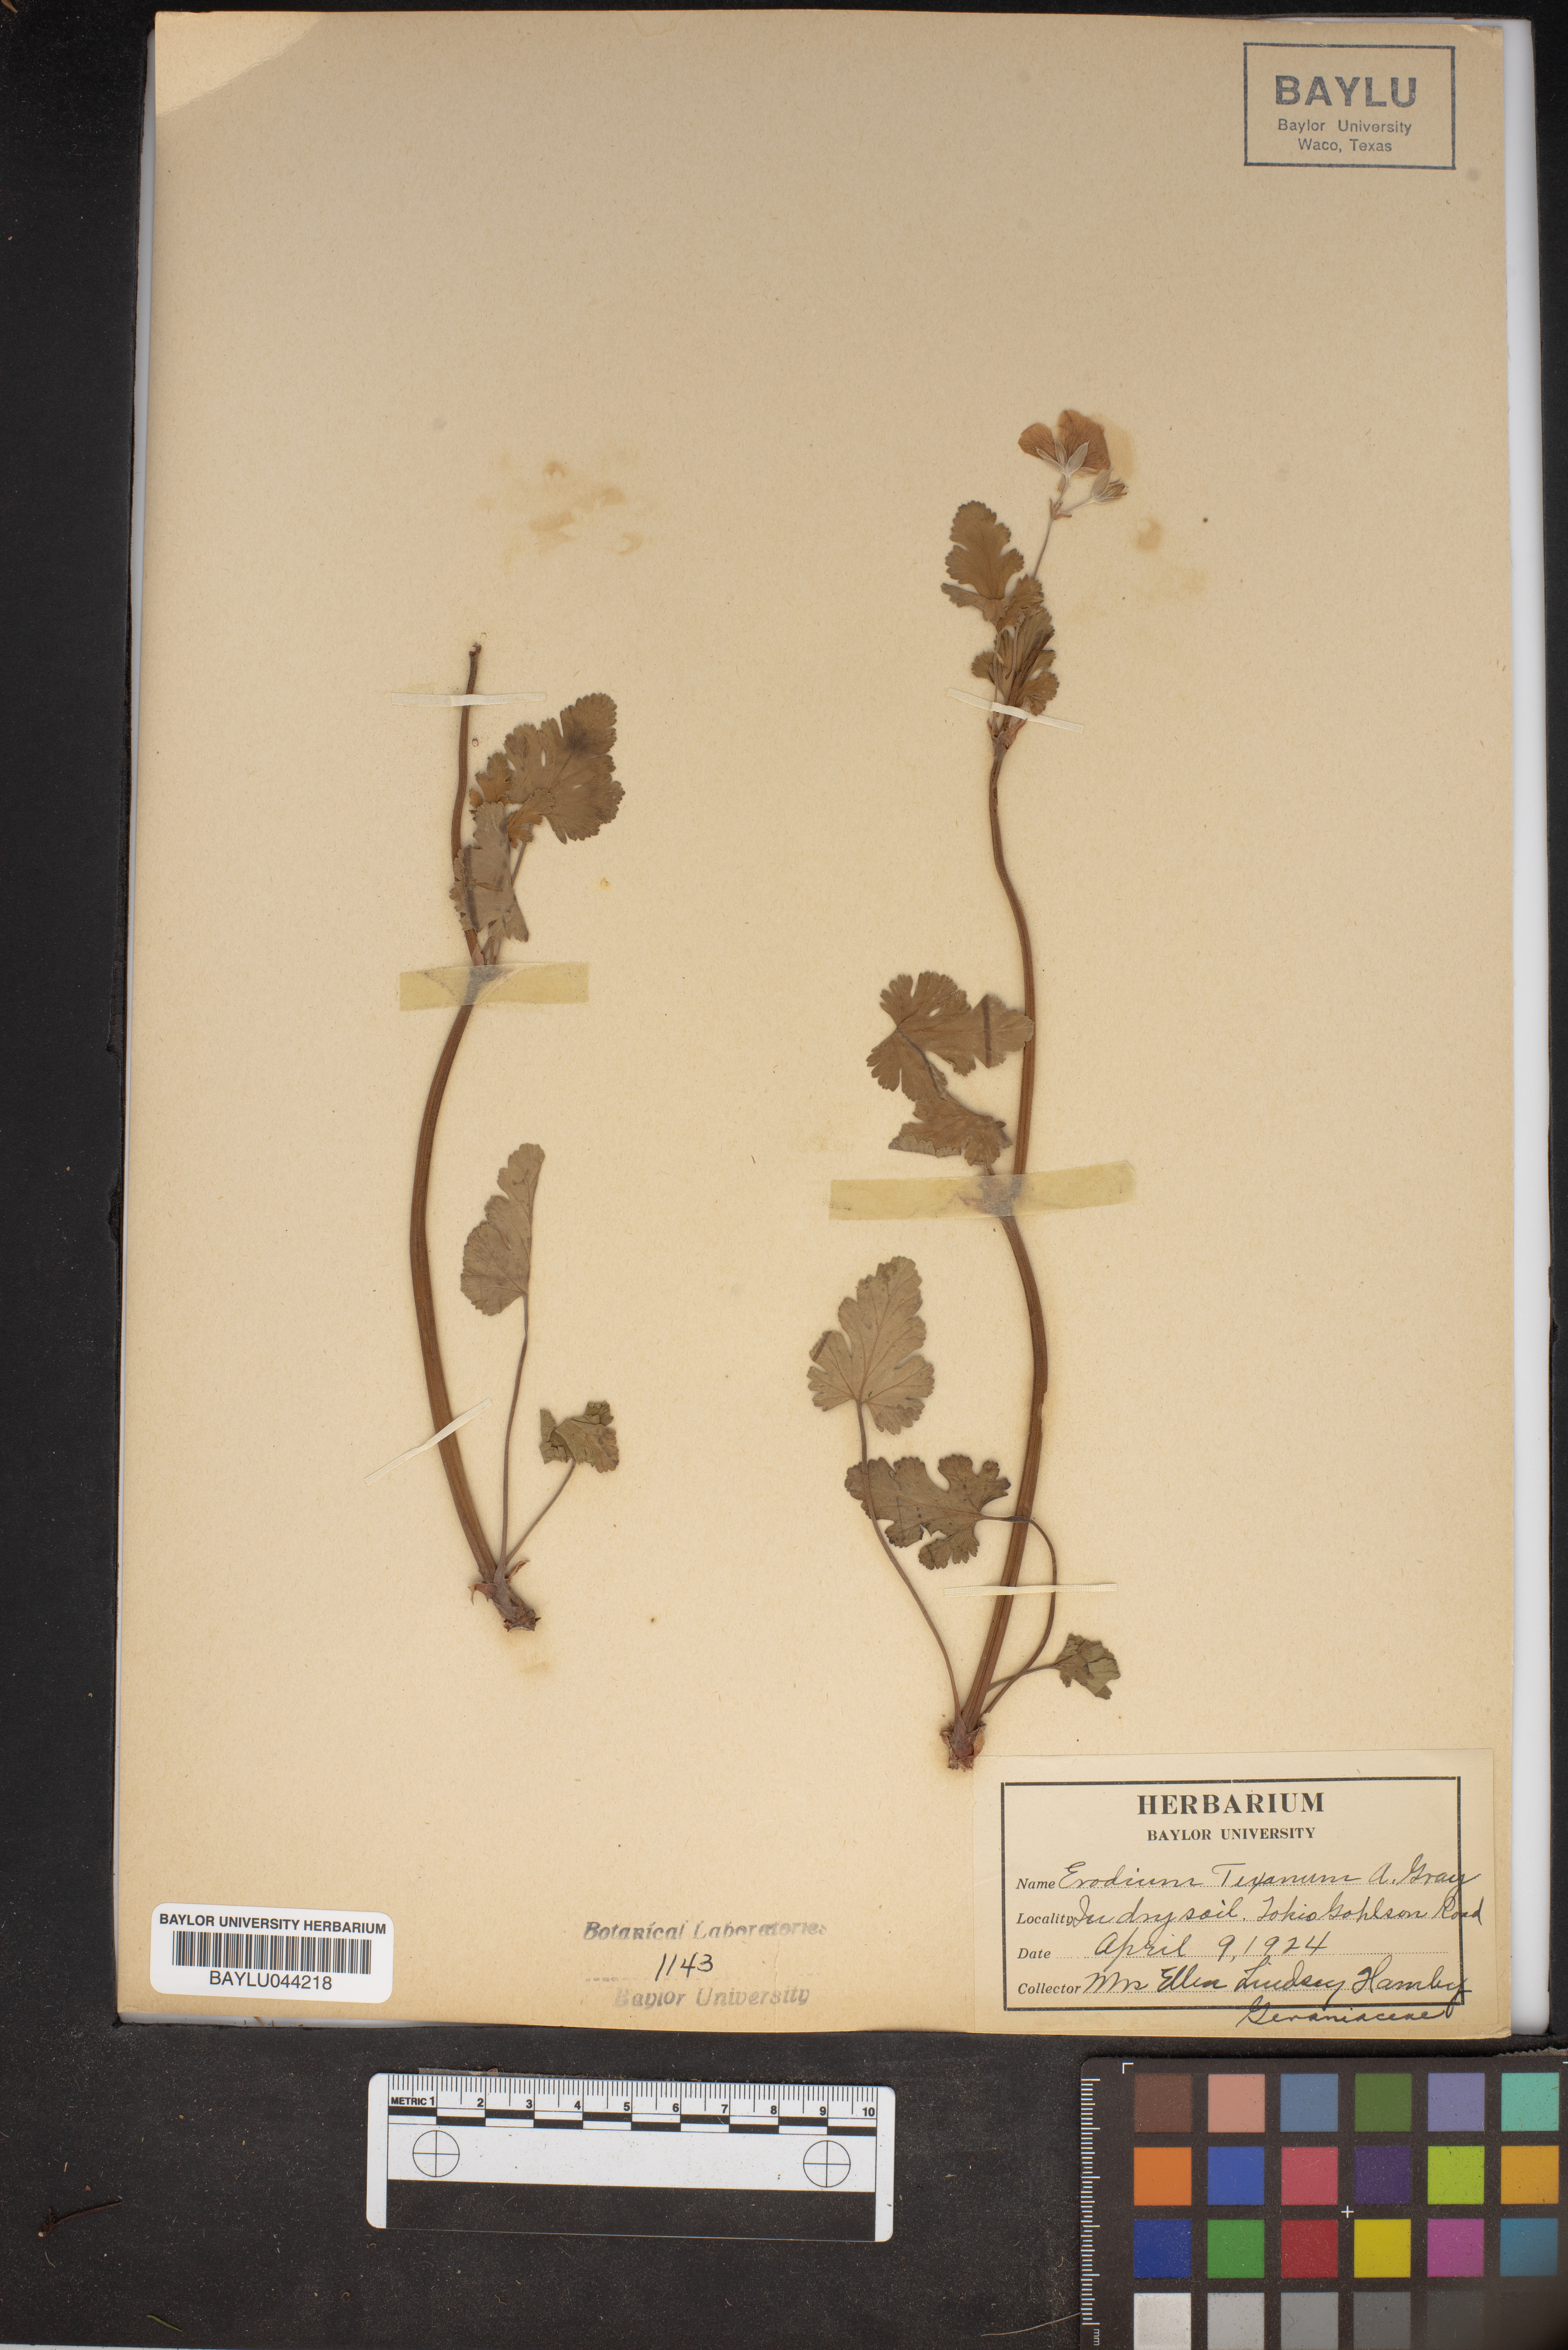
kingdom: Plantae
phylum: Tracheophyta
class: Magnoliopsida
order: Geraniales
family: Geraniaceae
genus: Erodium
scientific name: Erodium texanum
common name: Texas stork's-bill
